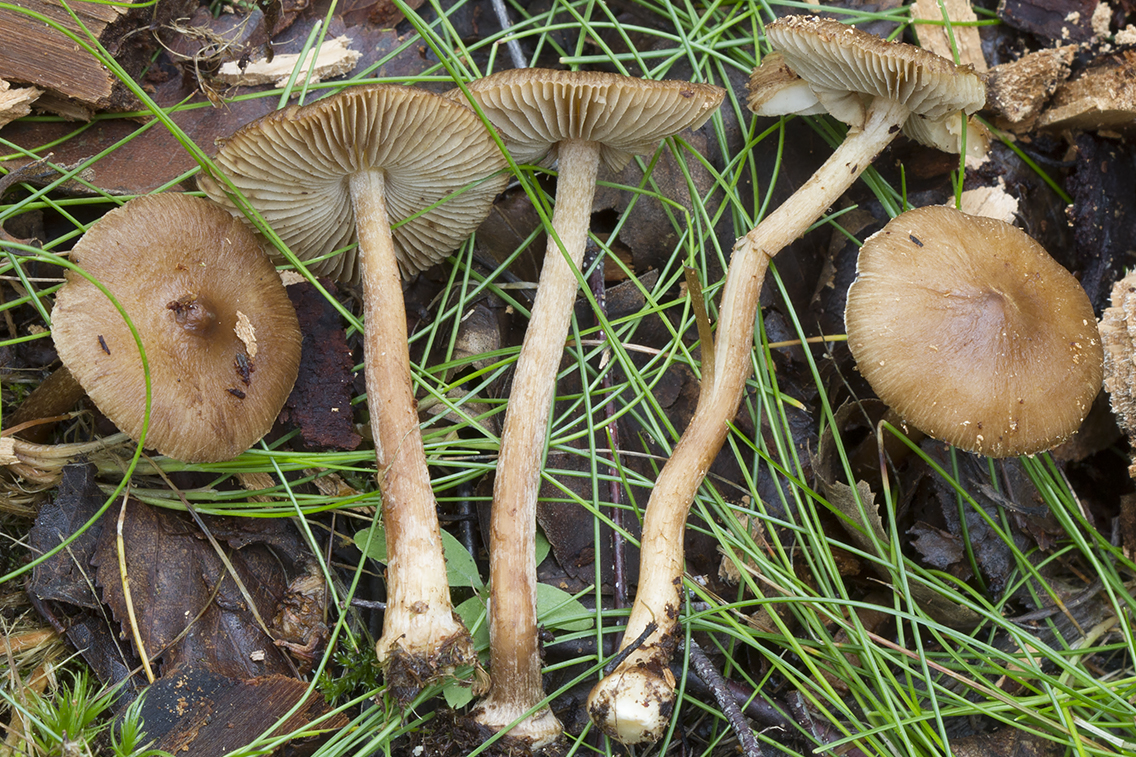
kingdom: Fungi
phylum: Basidiomycota
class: Agaricomycetes
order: Agaricales
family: Inocybaceae
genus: Inocybe
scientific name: Inocybe
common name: trævlhat
